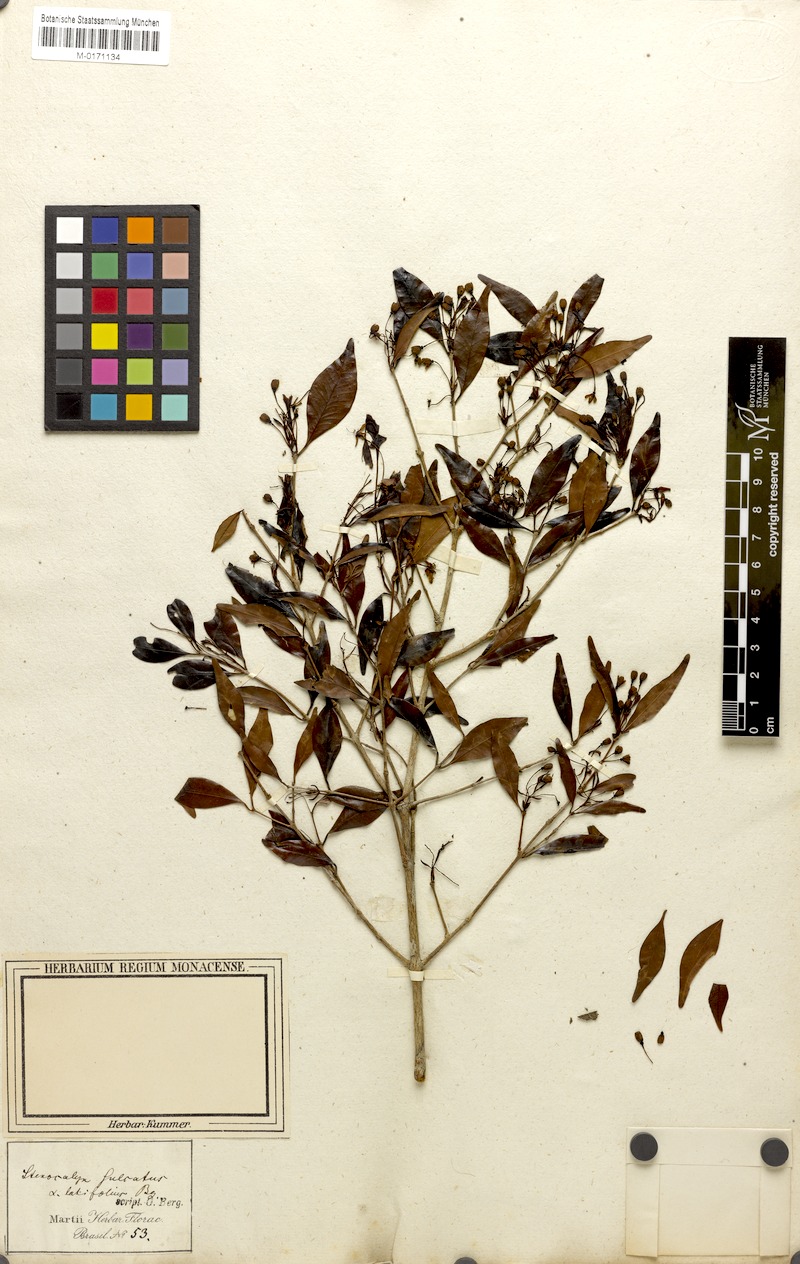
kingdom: Plantae
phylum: Tracheophyta
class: Magnoliopsida
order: Myrtales
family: Myrtaceae
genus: Eugenia
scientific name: Eugenia sulcata
